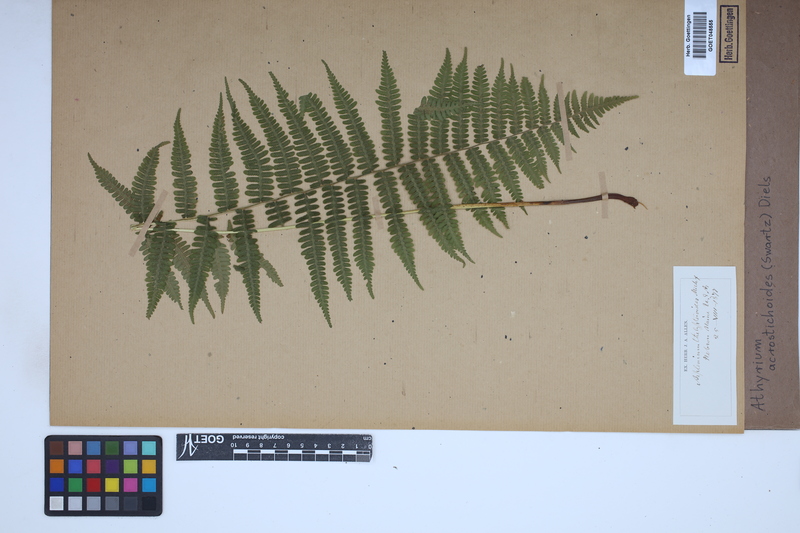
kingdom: Plantae
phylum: Tracheophyta
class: Polypodiopsida
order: Polypodiales
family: Athyriaceae
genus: Deparia
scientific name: Deparia acrostichoides
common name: Silver false spleenwort
